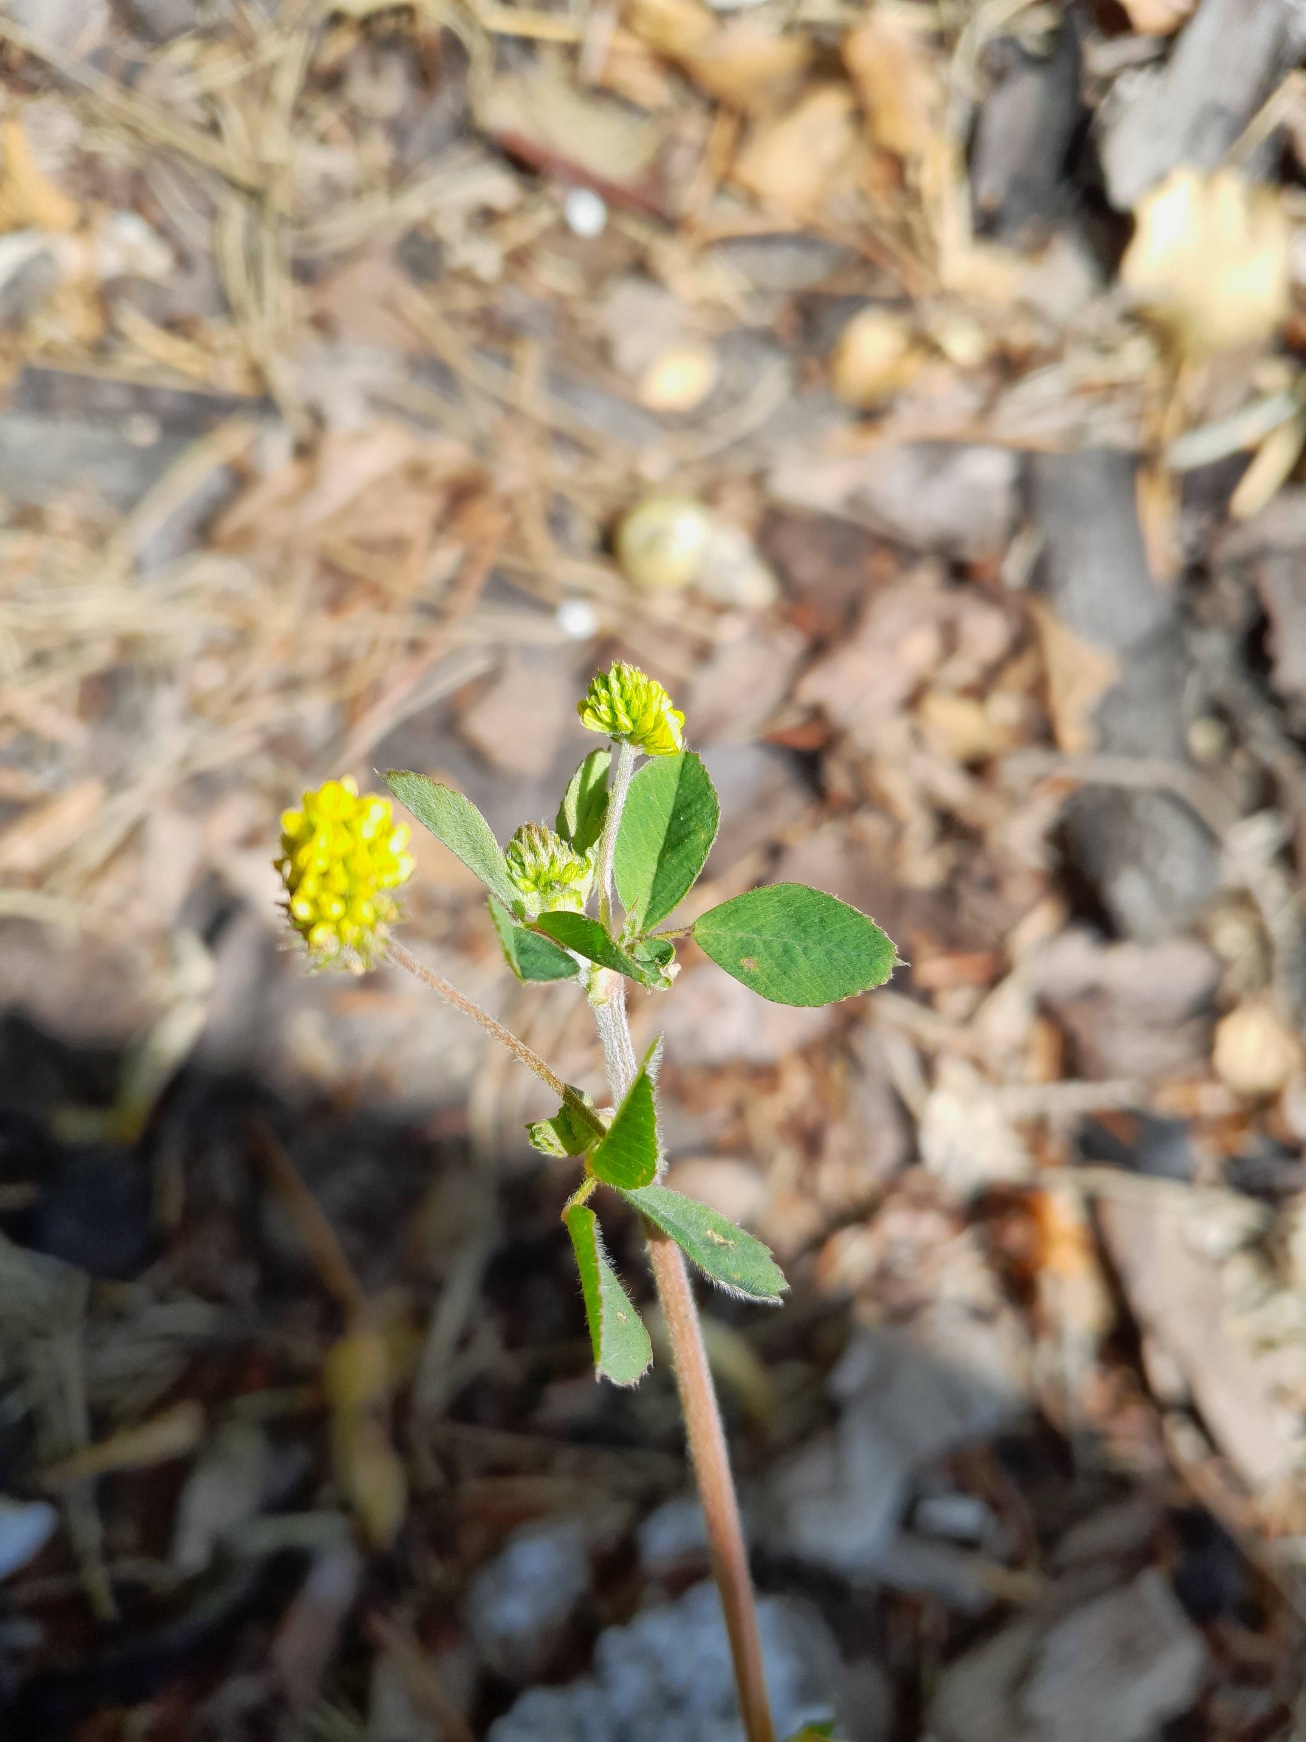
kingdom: Plantae
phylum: Tracheophyta
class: Magnoliopsida
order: Fabales
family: Fabaceae
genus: Medicago
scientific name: Medicago lupulina
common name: Humle-sneglebælg
